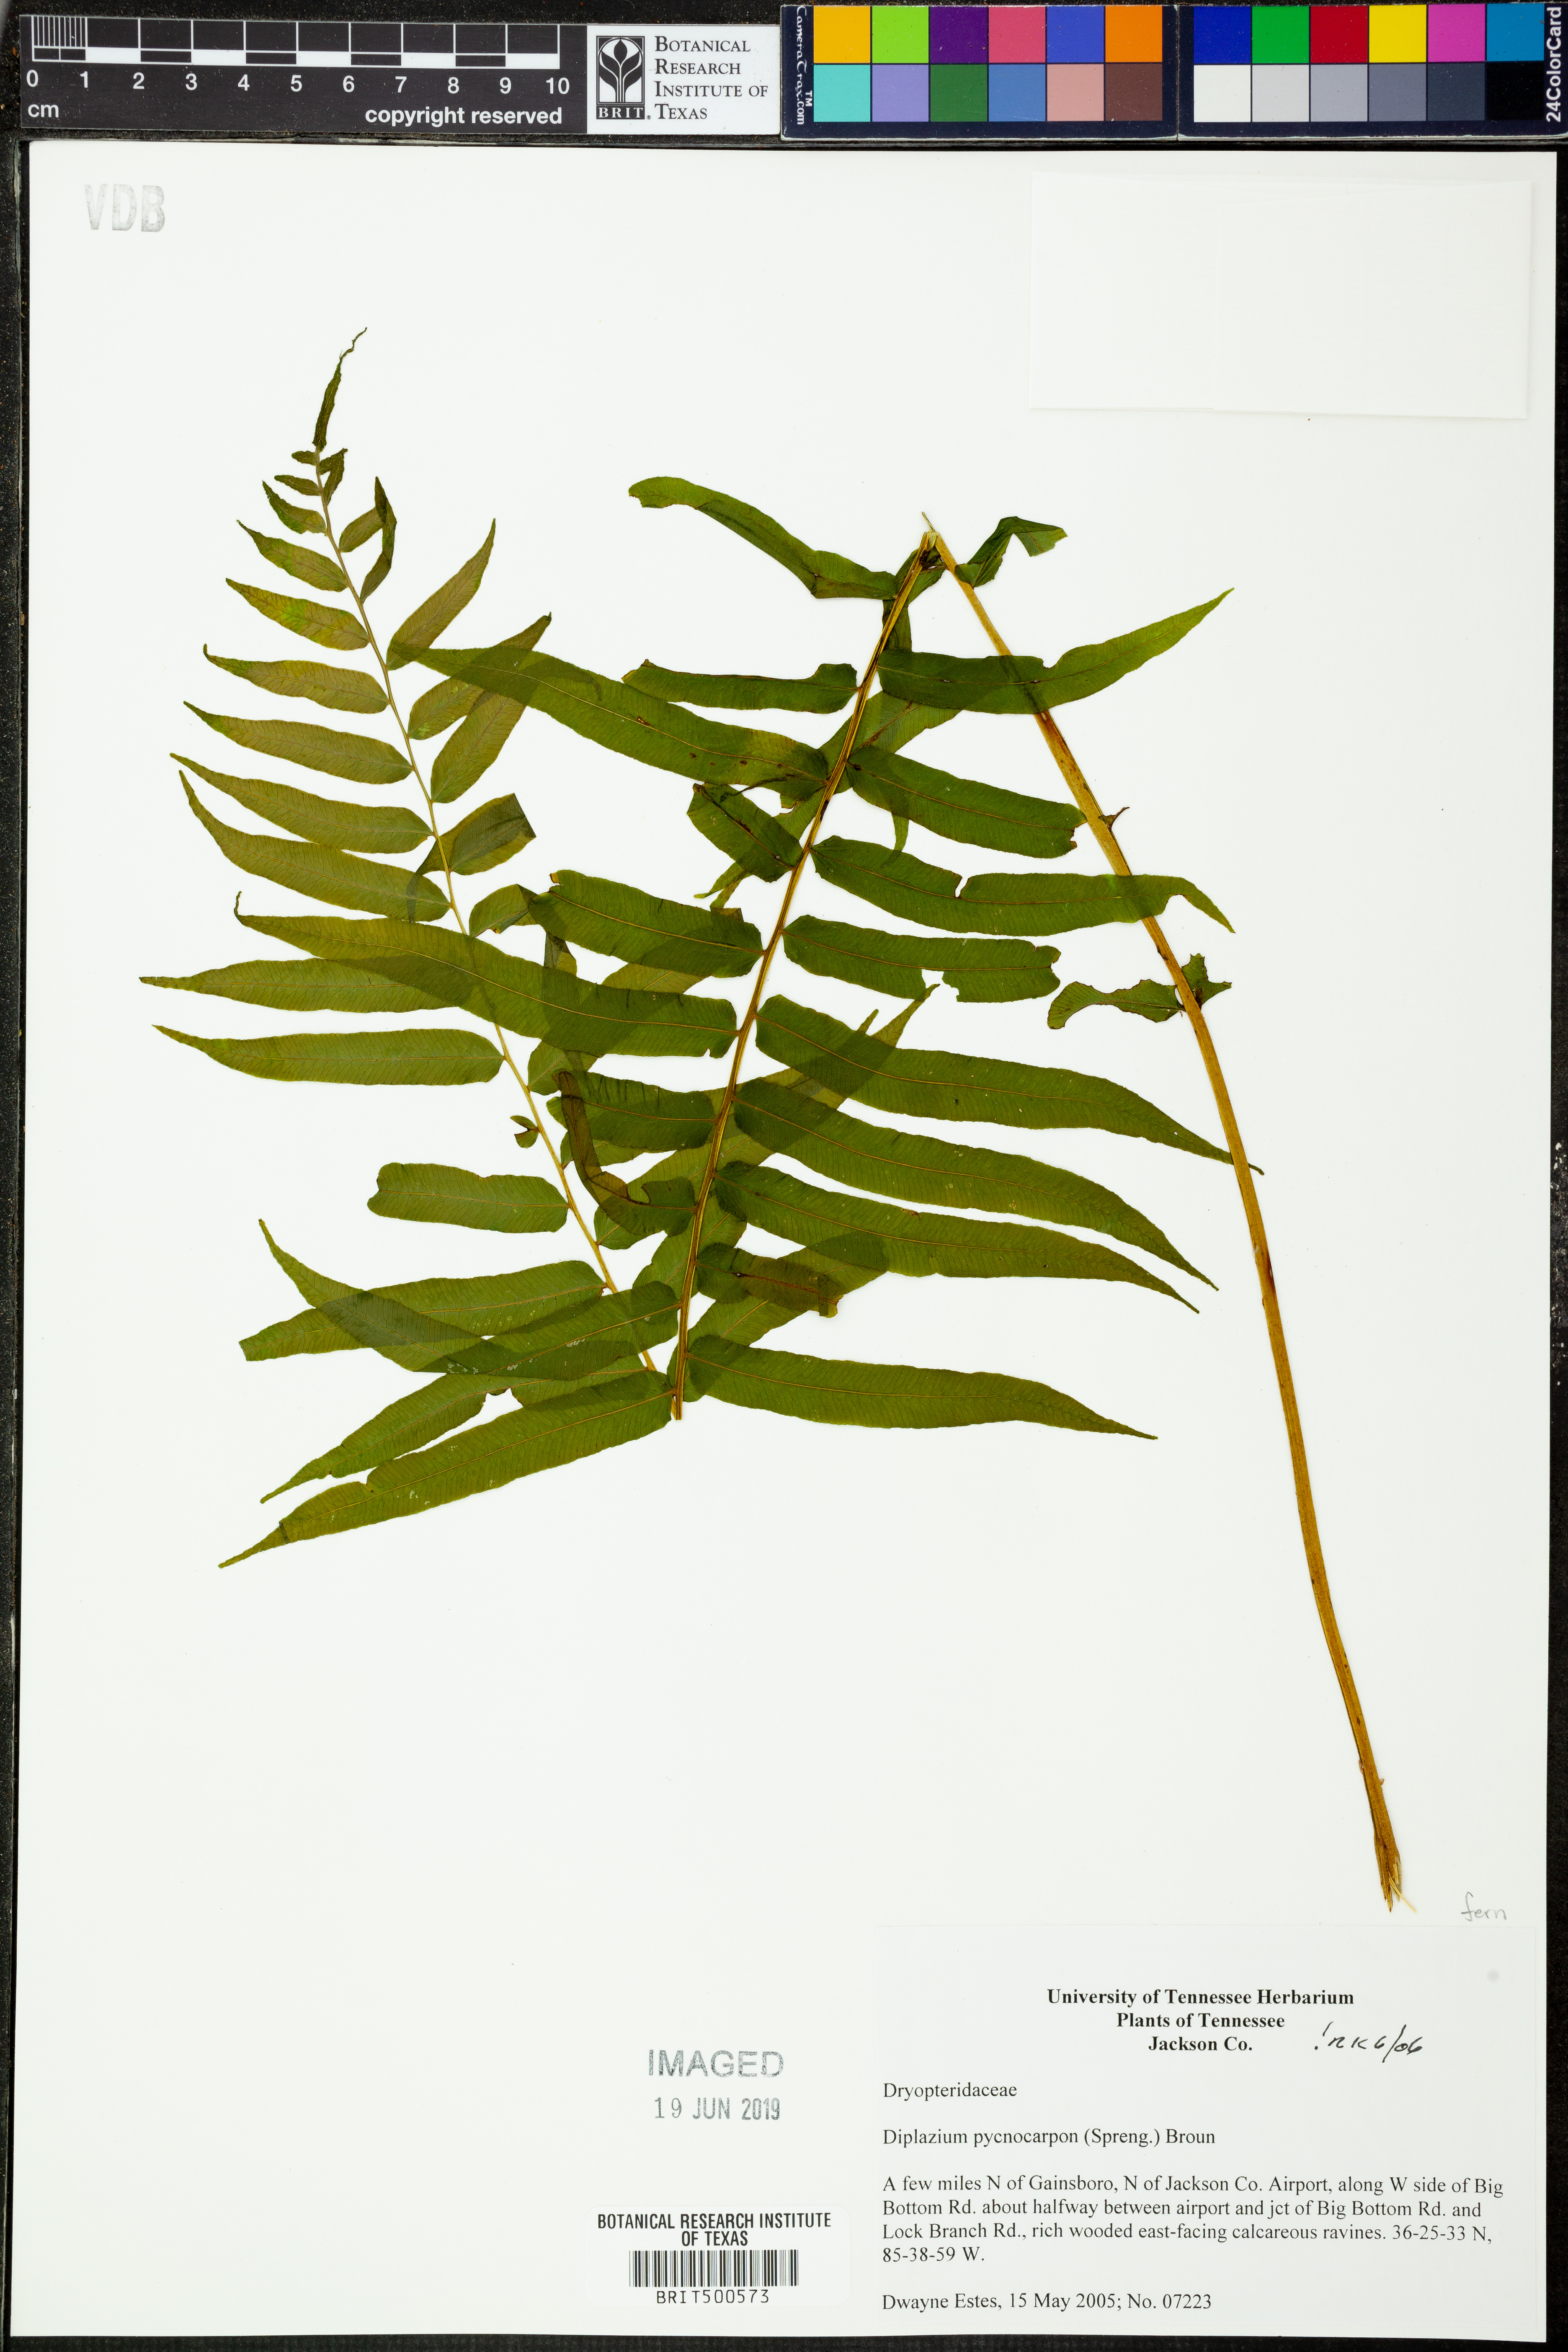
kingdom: Plantae
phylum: Tracheophyta
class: Polypodiopsida
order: Polypodiales
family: Diplaziopsidaceae
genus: Homalosorus
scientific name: Homalosorus pycnocarpos
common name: Glade fern
